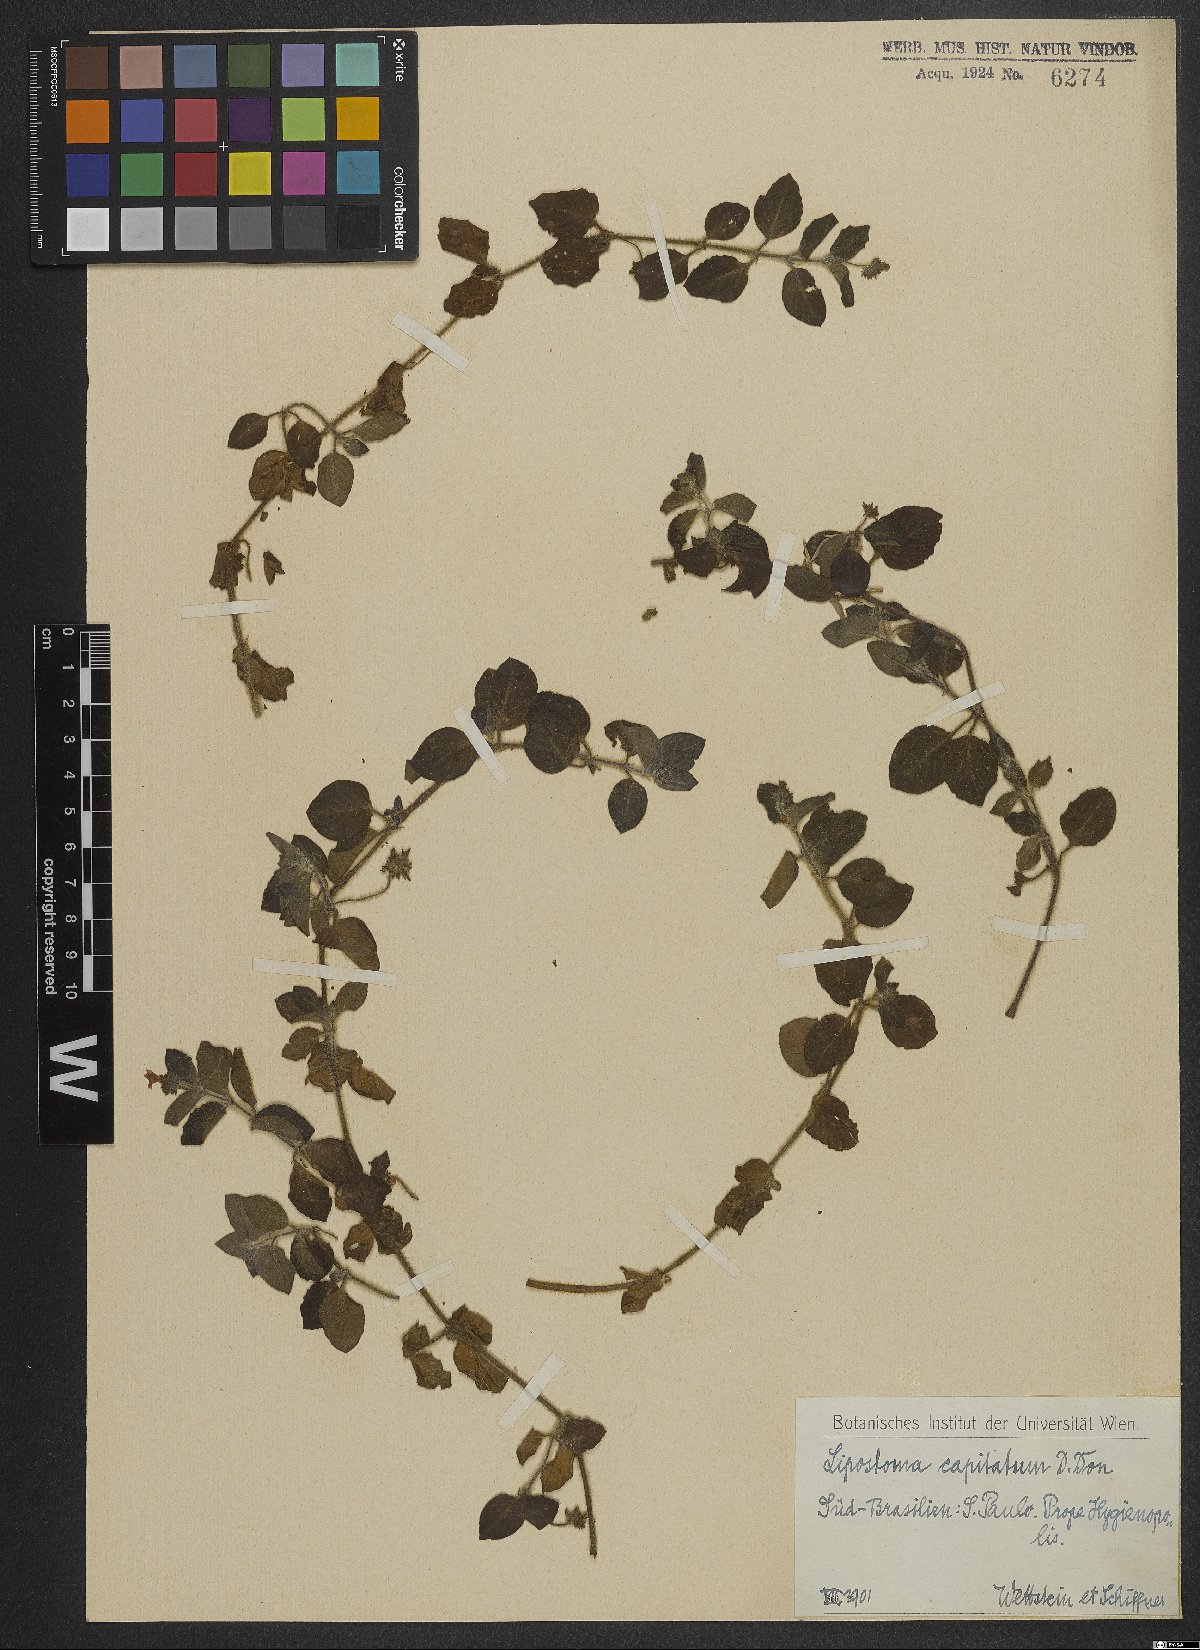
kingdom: Plantae
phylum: Tracheophyta
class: Magnoliopsida
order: Gentianales
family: Rubiaceae
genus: Coccocypselum
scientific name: Coccocypselum capitatum
